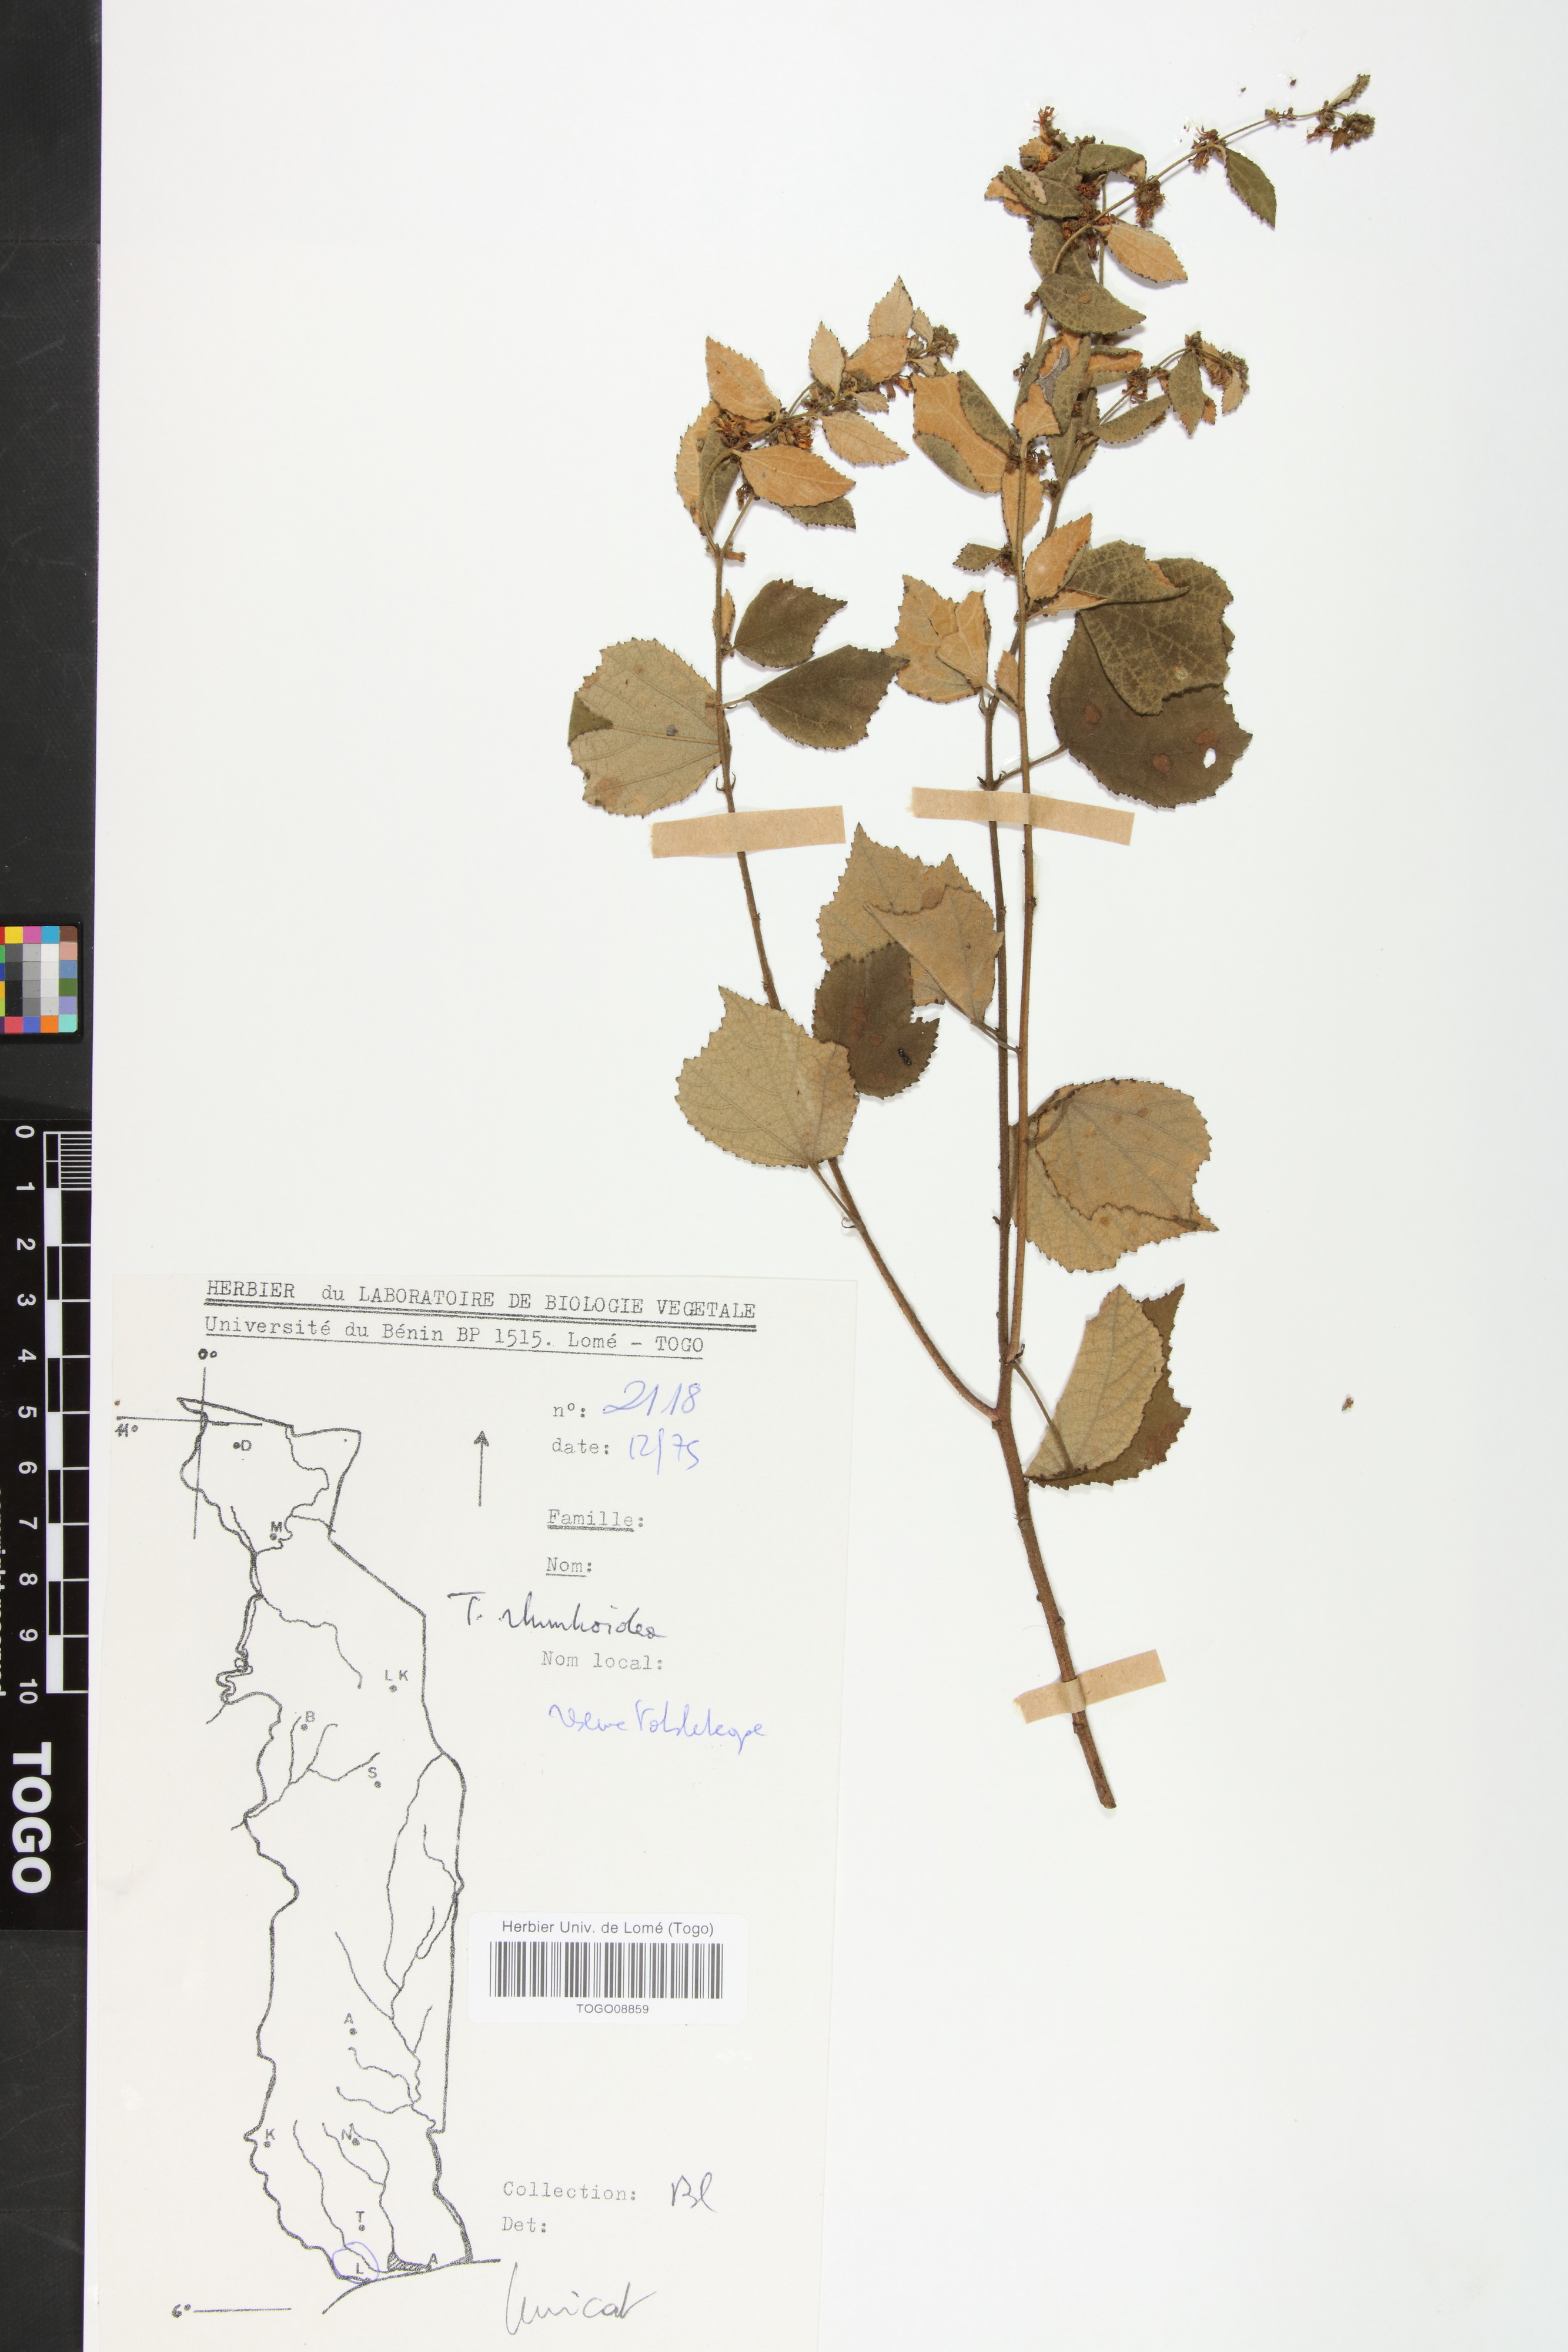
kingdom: Plantae
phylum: Tracheophyta
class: Magnoliopsida
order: Malvales
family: Malvaceae
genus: Triumfetta
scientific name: Triumfetta rhomboidea
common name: Diamond burbark
